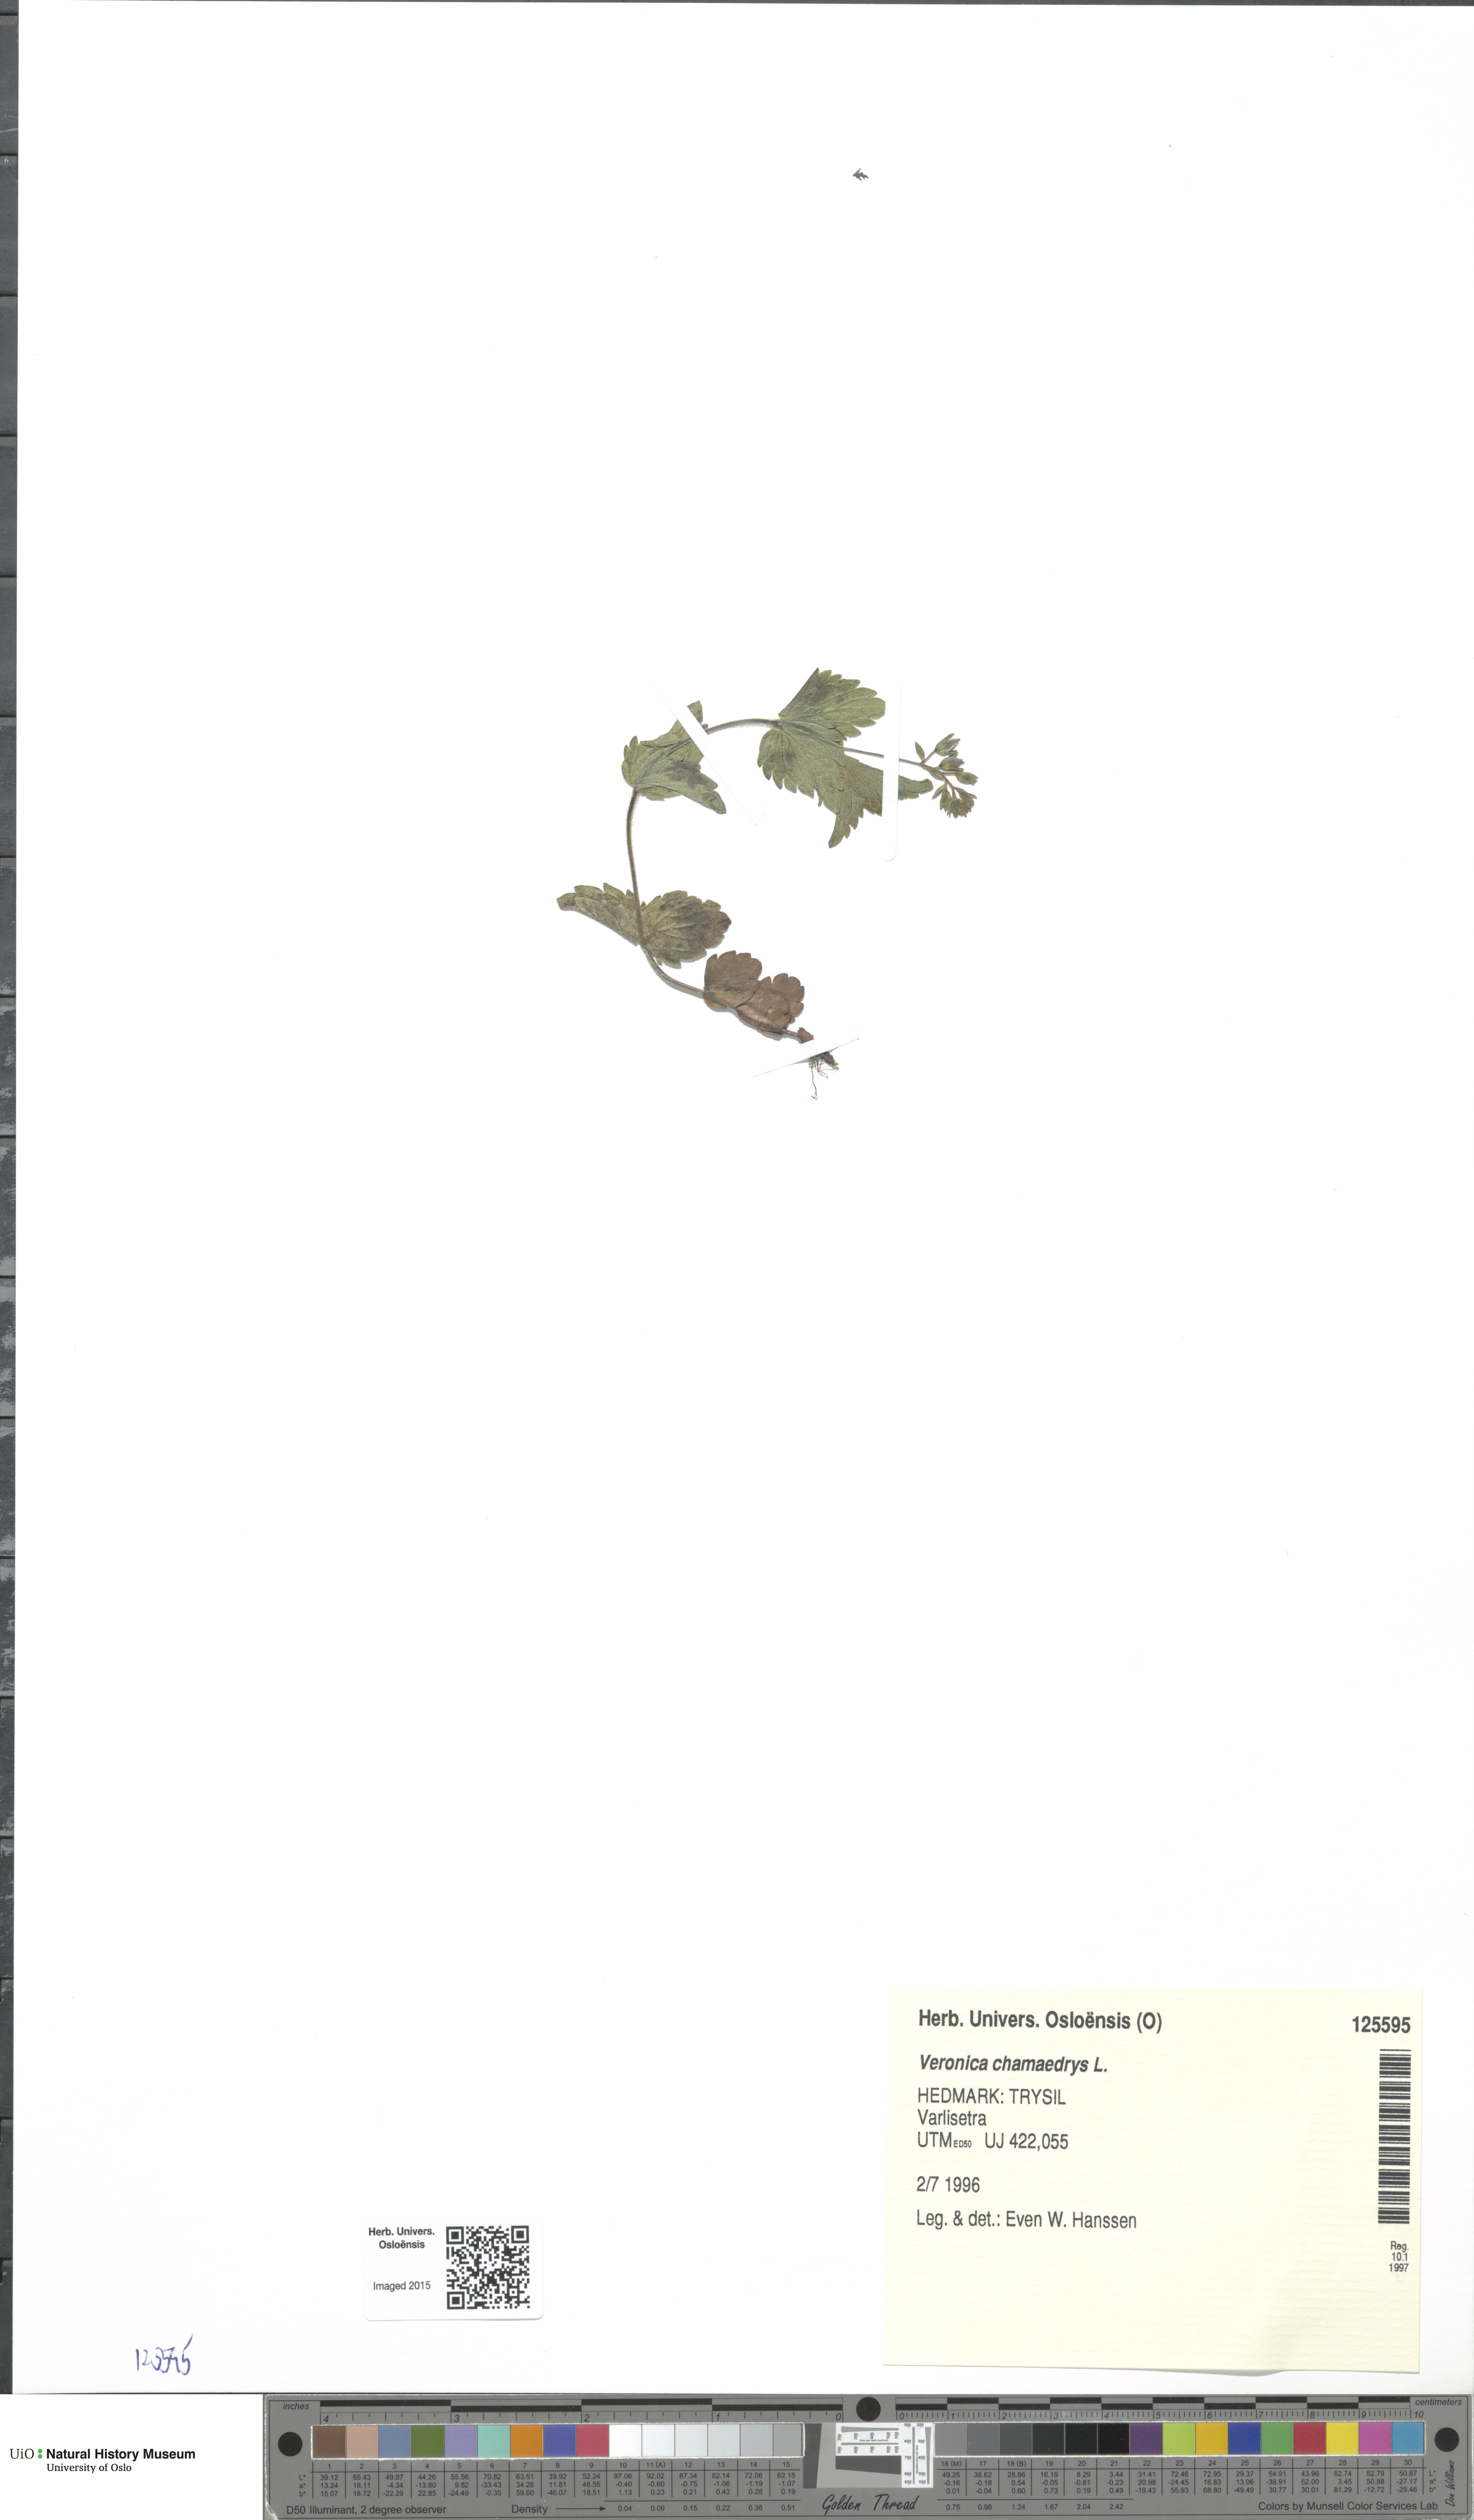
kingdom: Plantae
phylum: Tracheophyta
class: Magnoliopsida
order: Lamiales
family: Plantaginaceae
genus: Veronica
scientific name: Veronica chamaedrys
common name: Germander speedwell
